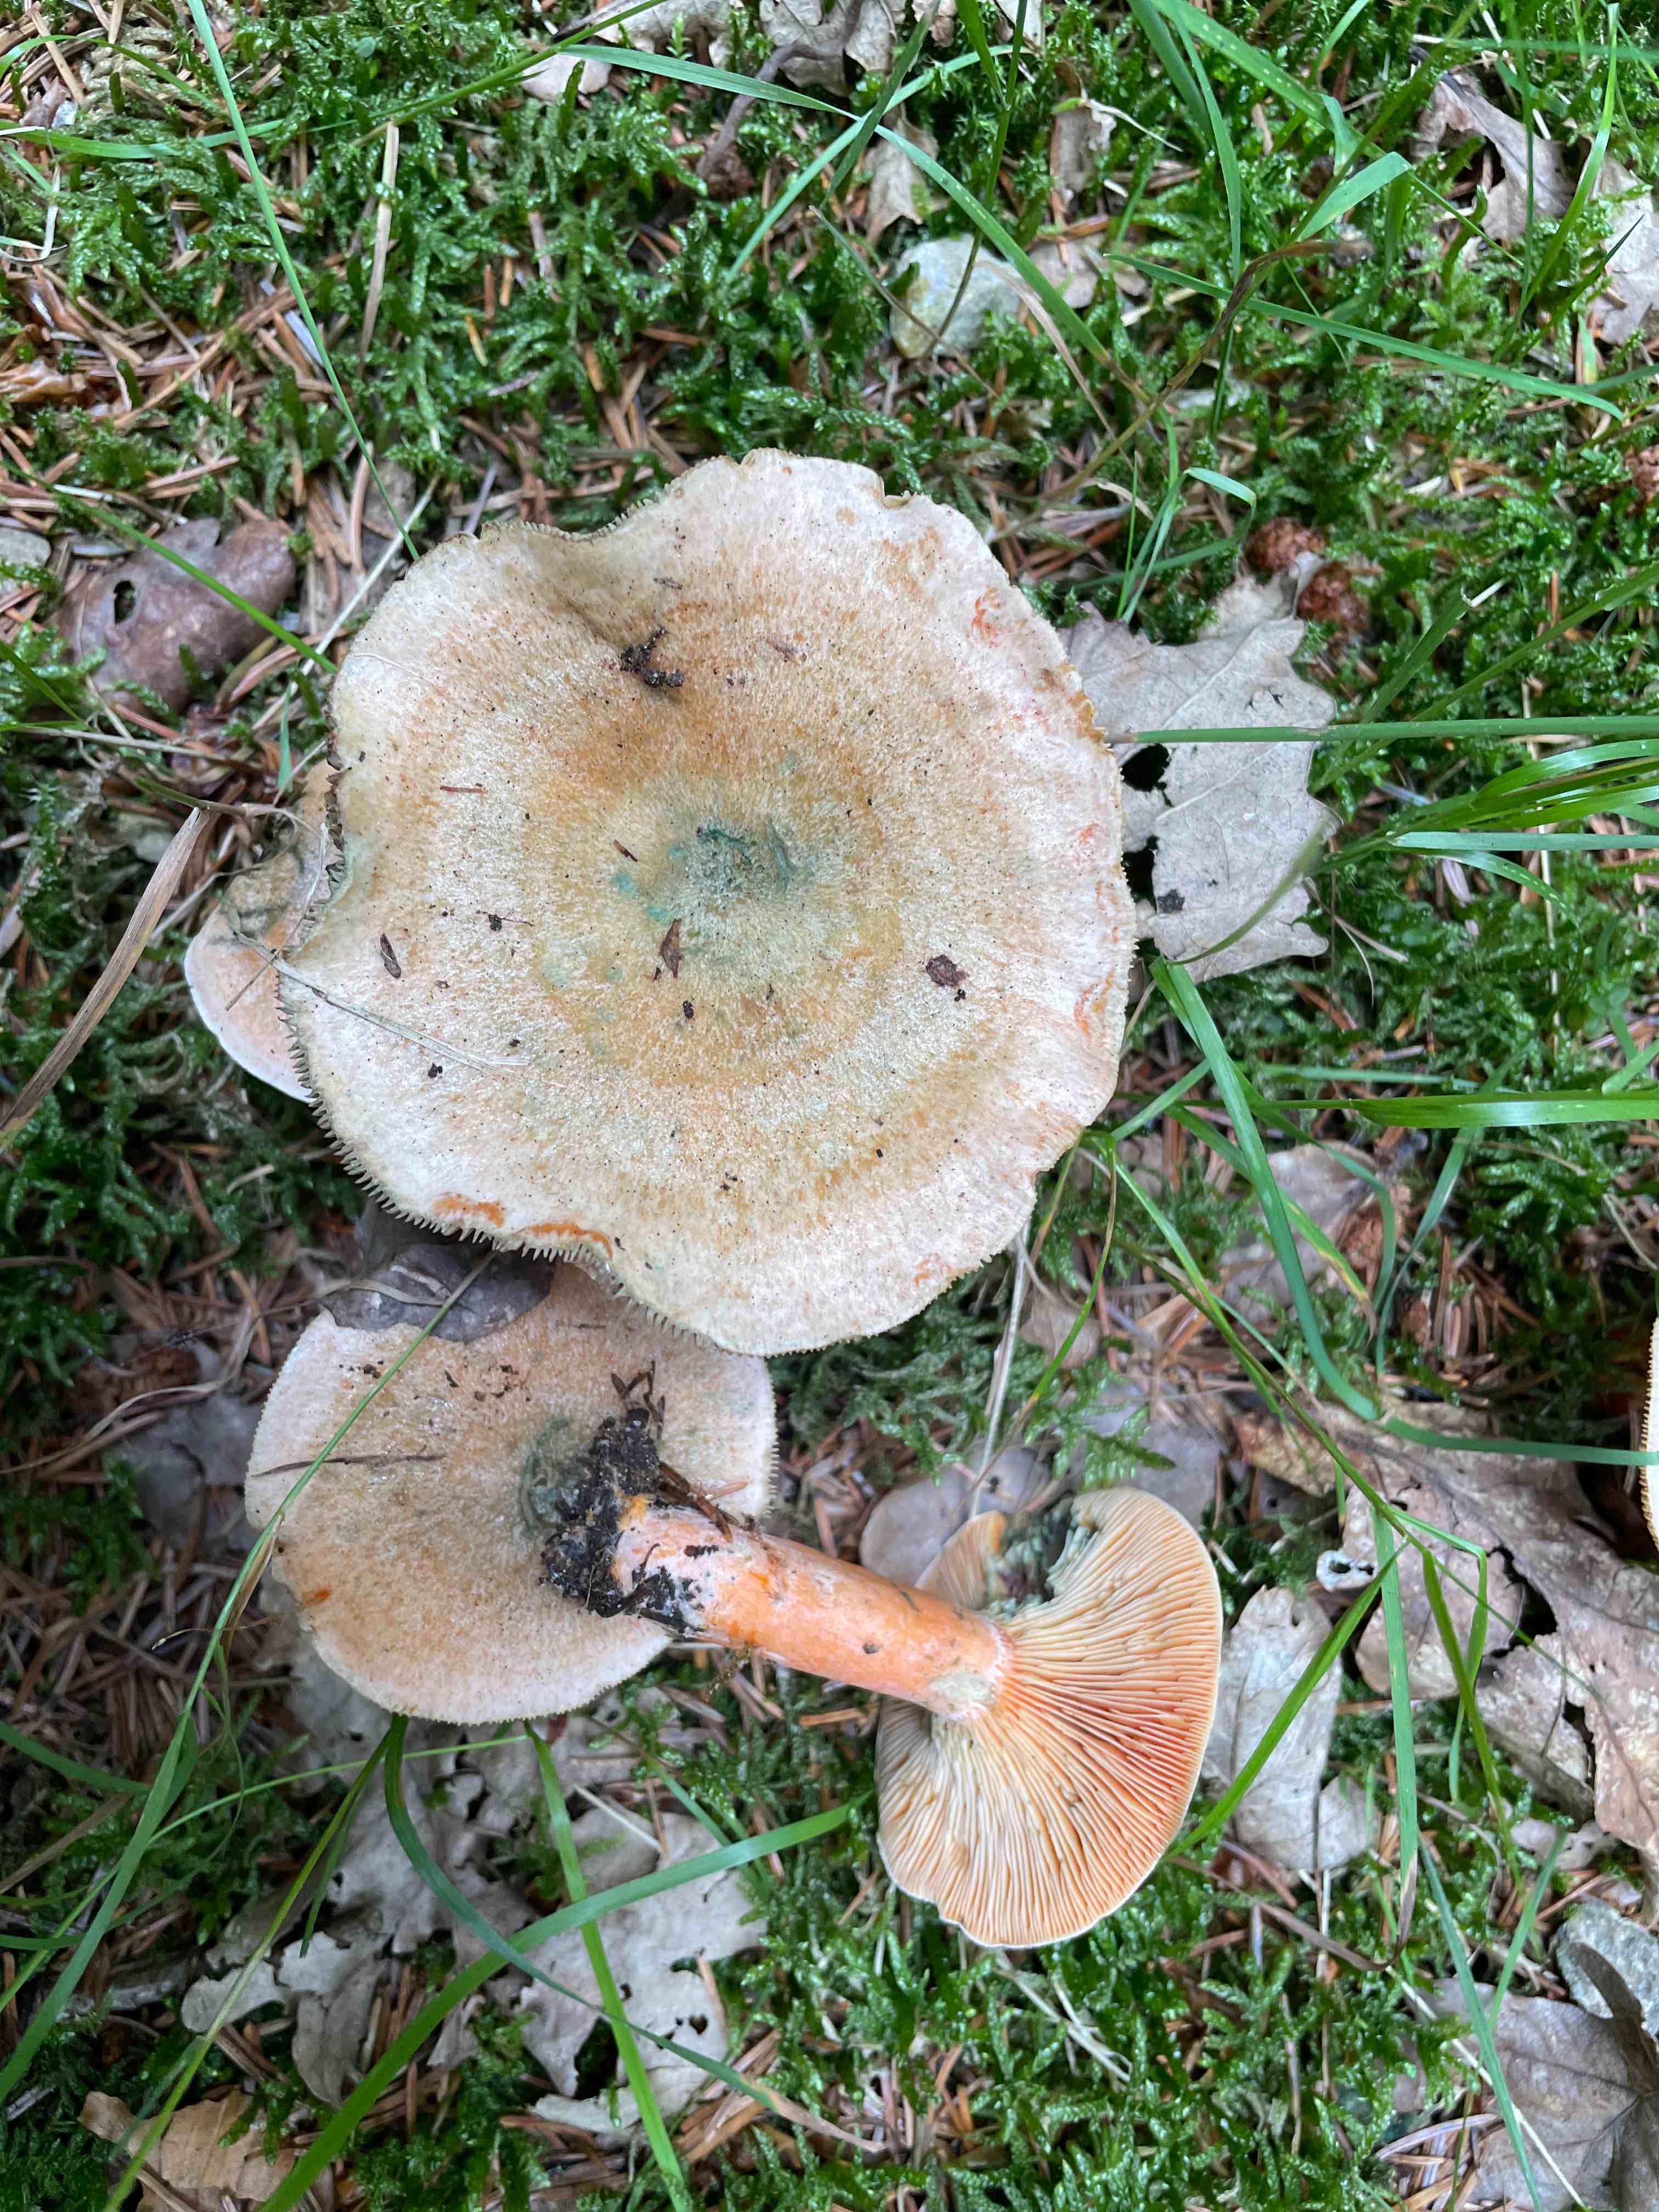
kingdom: Fungi
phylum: Basidiomycota
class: Agaricomycetes
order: Russulales
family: Russulaceae
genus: Lactarius
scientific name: Lactarius deterrimus
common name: gran-mælkehat
